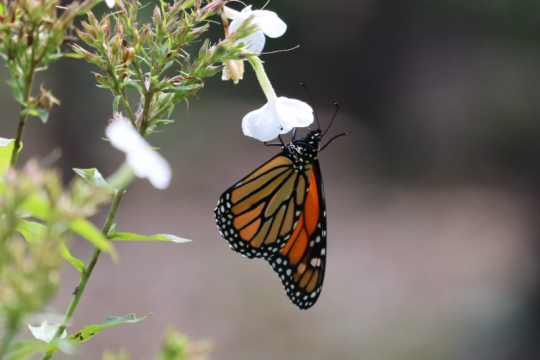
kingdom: Animalia
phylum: Arthropoda
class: Insecta
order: Lepidoptera
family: Nymphalidae
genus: Danaus
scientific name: Danaus plexippus
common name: Monarch
